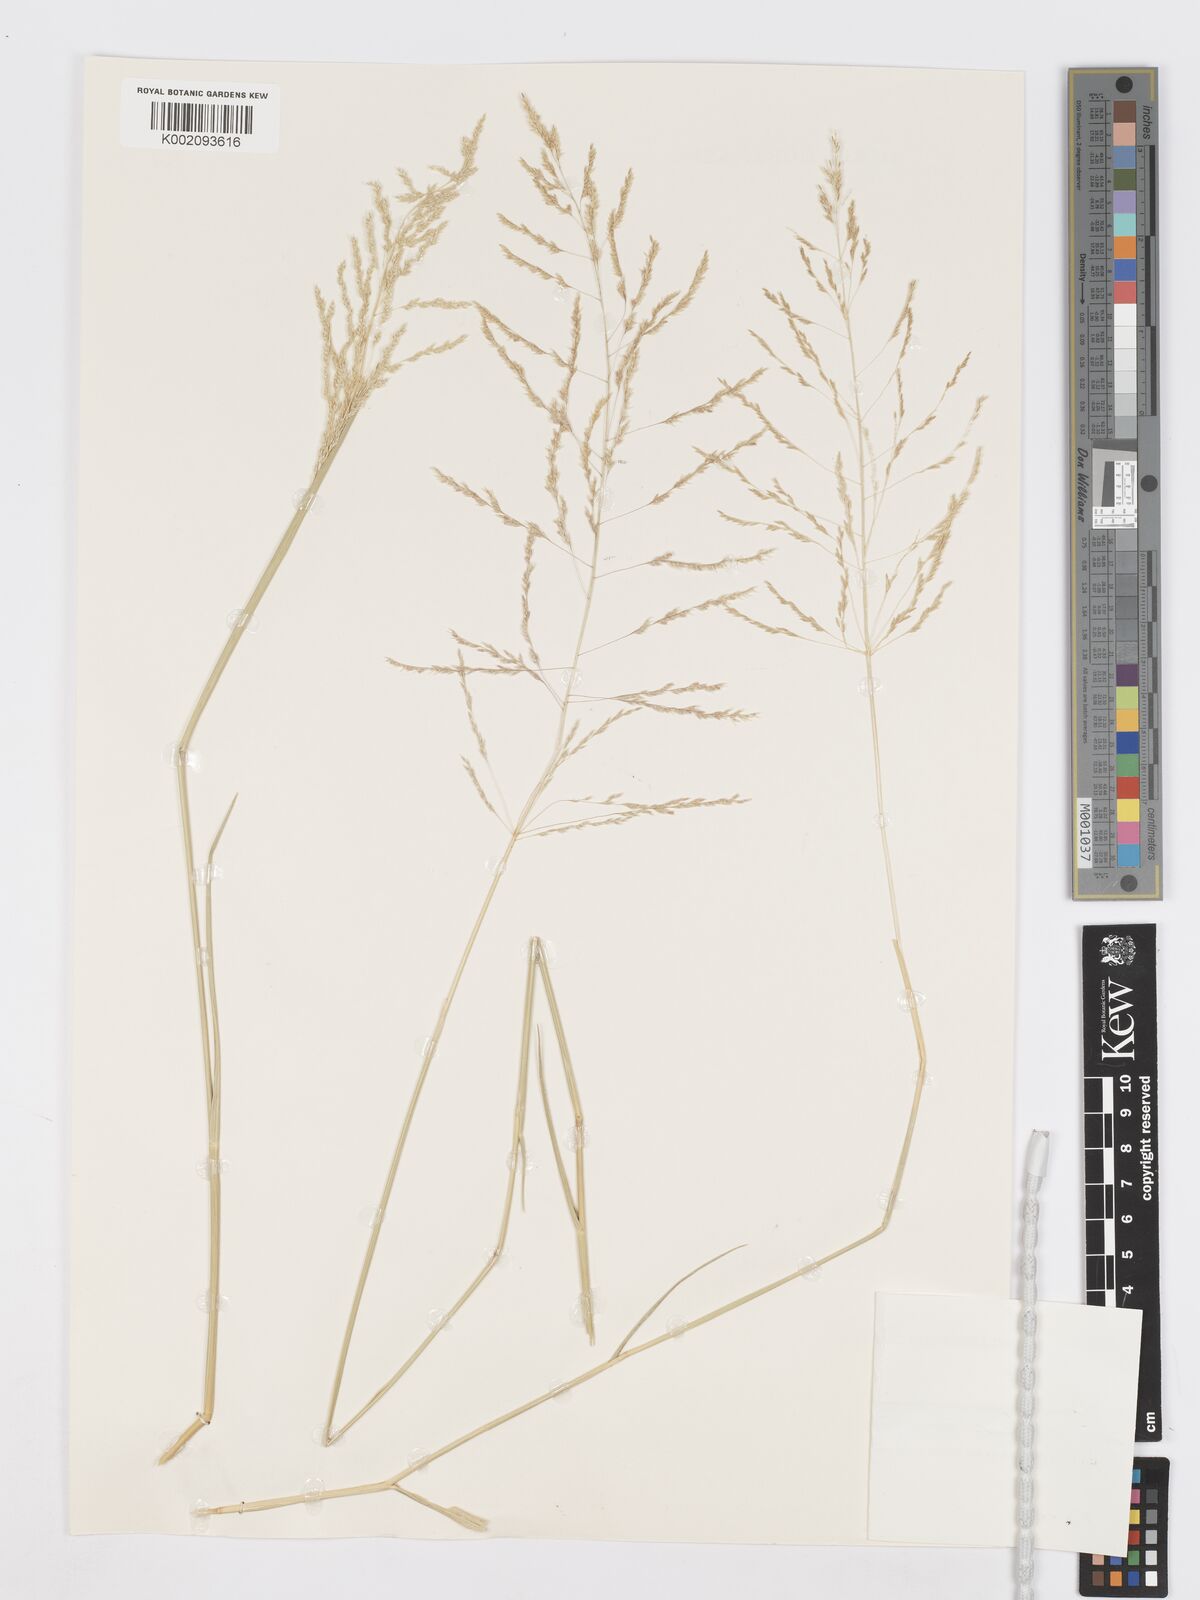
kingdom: Plantae
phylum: Tracheophyta
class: Liliopsida
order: Poales
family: Poaceae
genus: Sporobolus
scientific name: Sporobolus ioclados
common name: Pan dropseed
